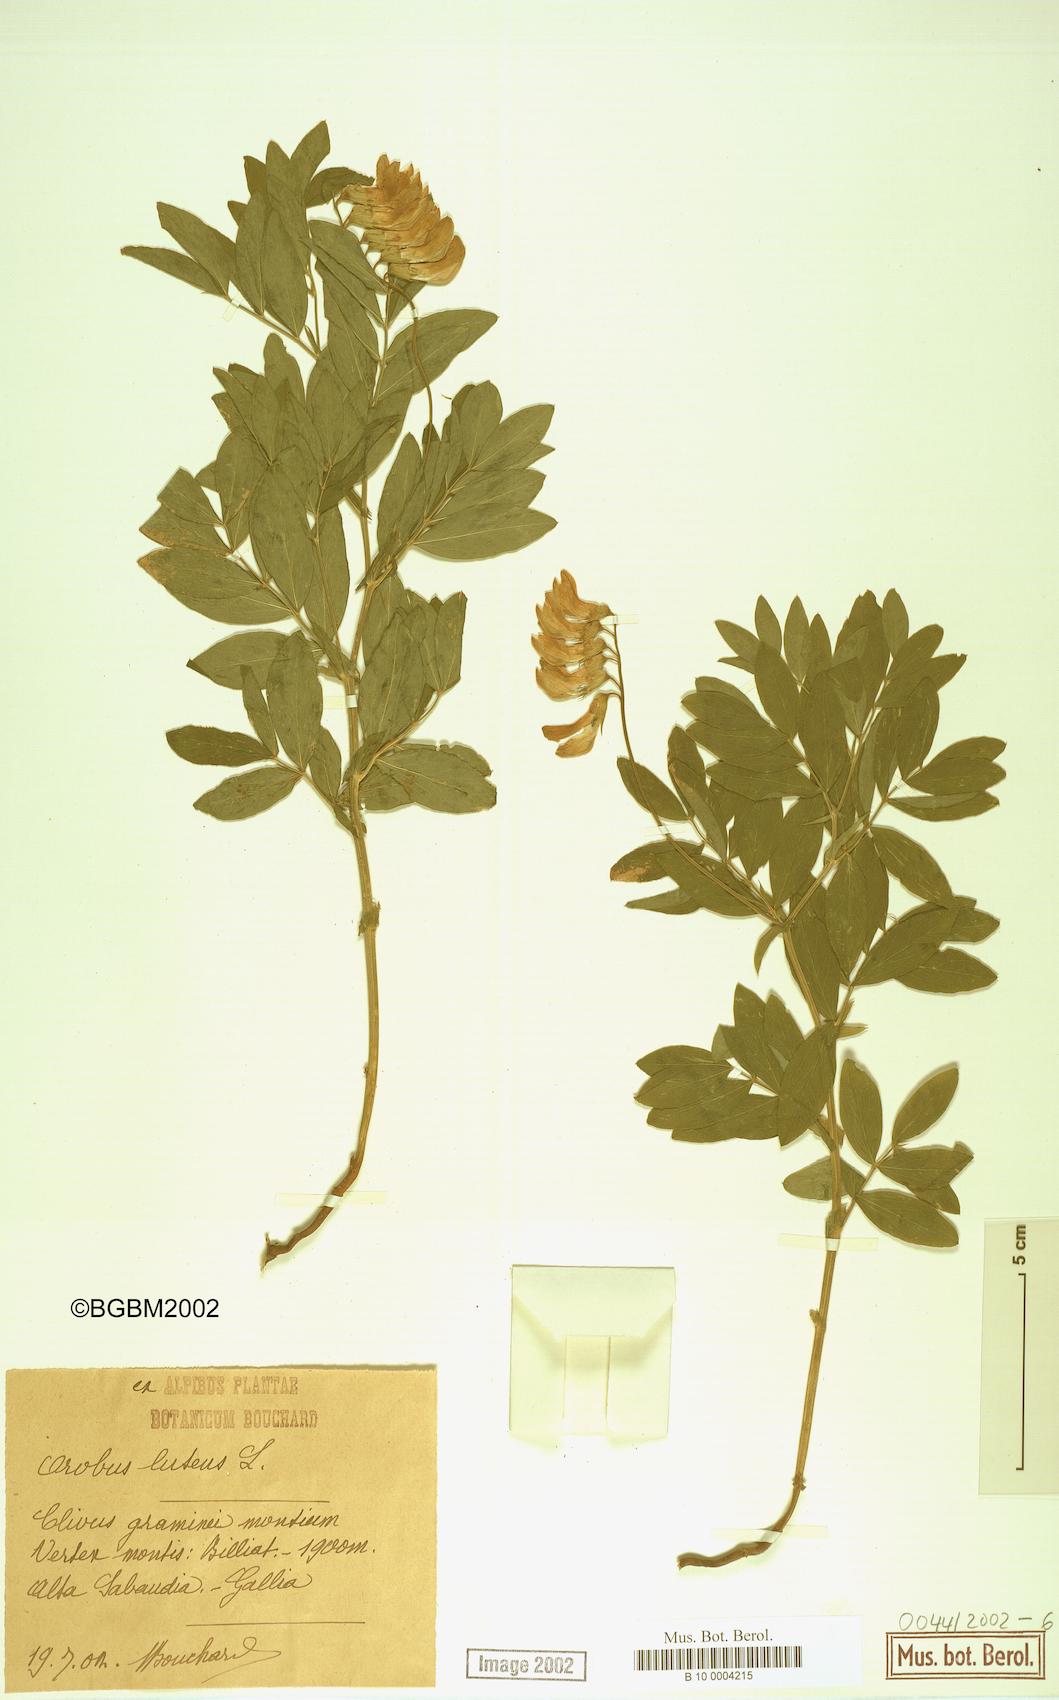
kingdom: Plantae
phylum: Tracheophyta
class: Magnoliopsida
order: Fabales
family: Fabaceae
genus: Lathyrus
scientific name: Lathyrus gmelinii
